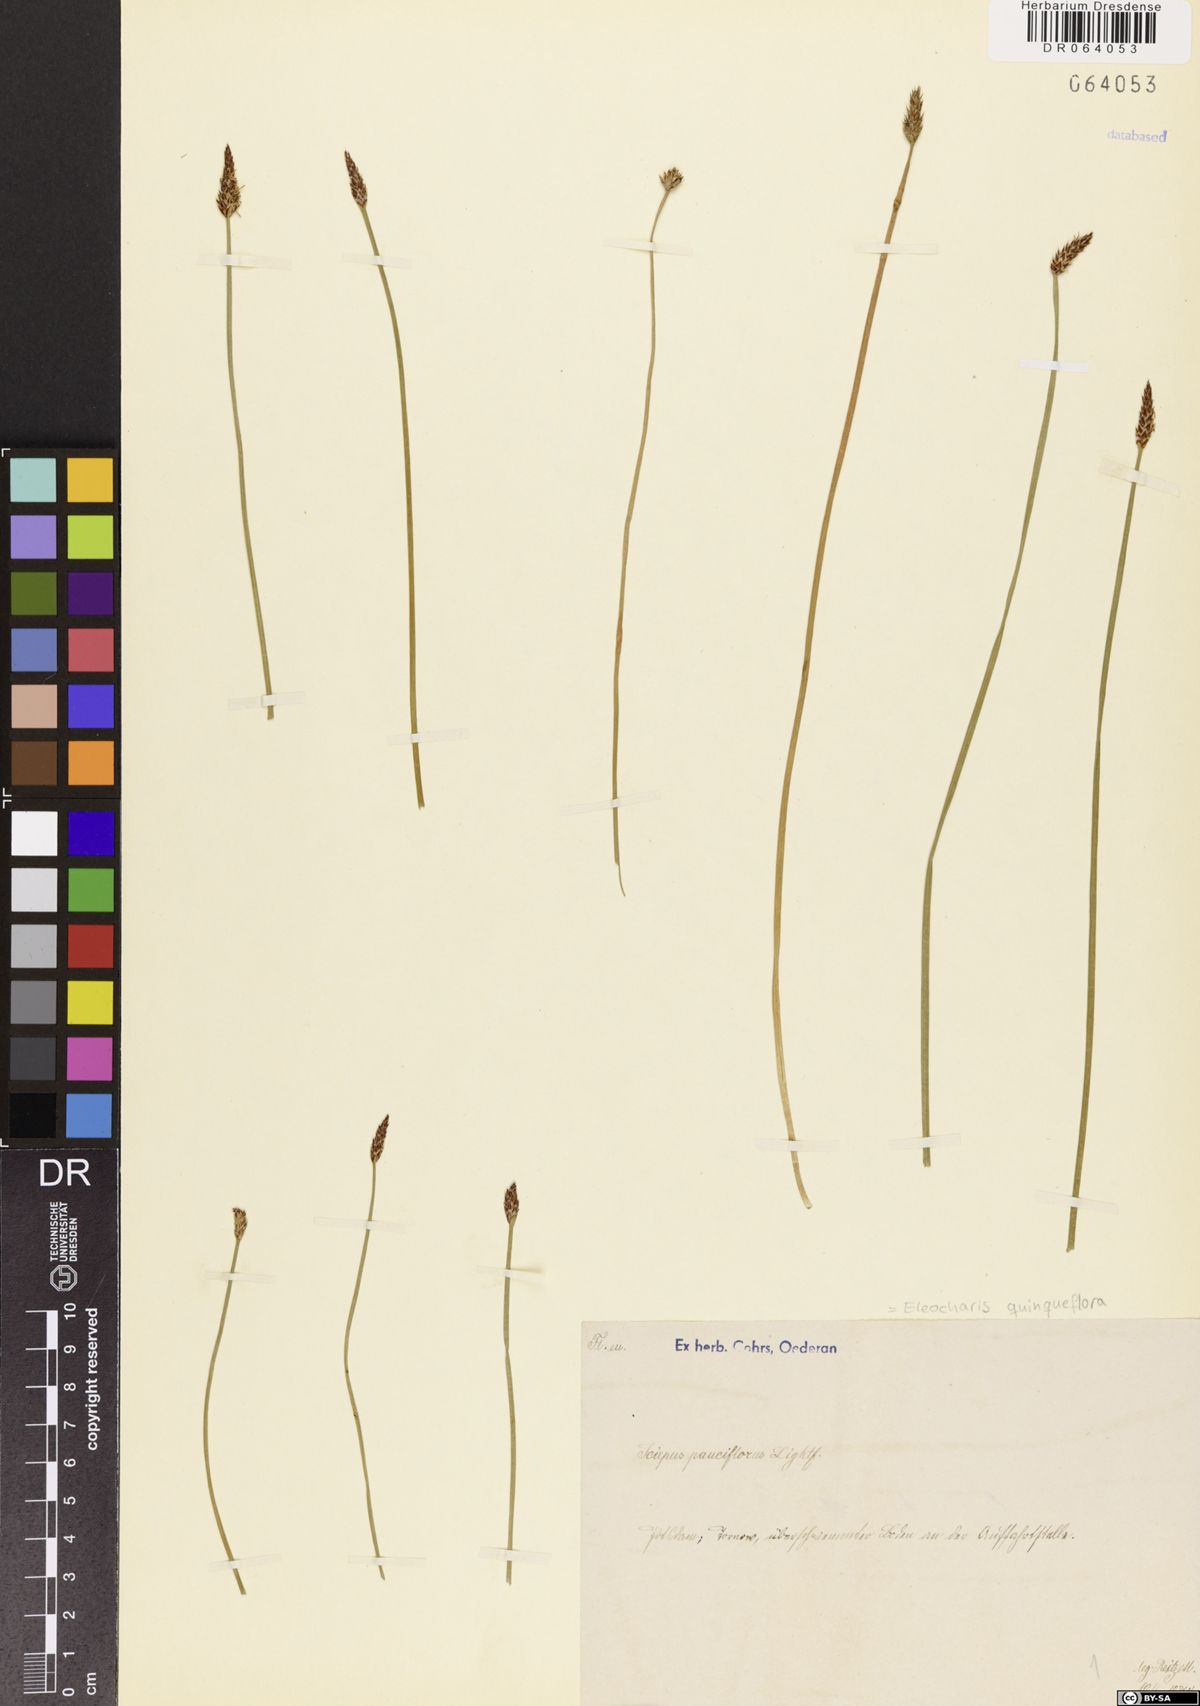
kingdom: Plantae
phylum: Tracheophyta
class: Liliopsida
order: Poales
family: Cyperaceae
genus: Eleocharis
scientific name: Eleocharis quinqueflora
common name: Few-flowered spike-rush
